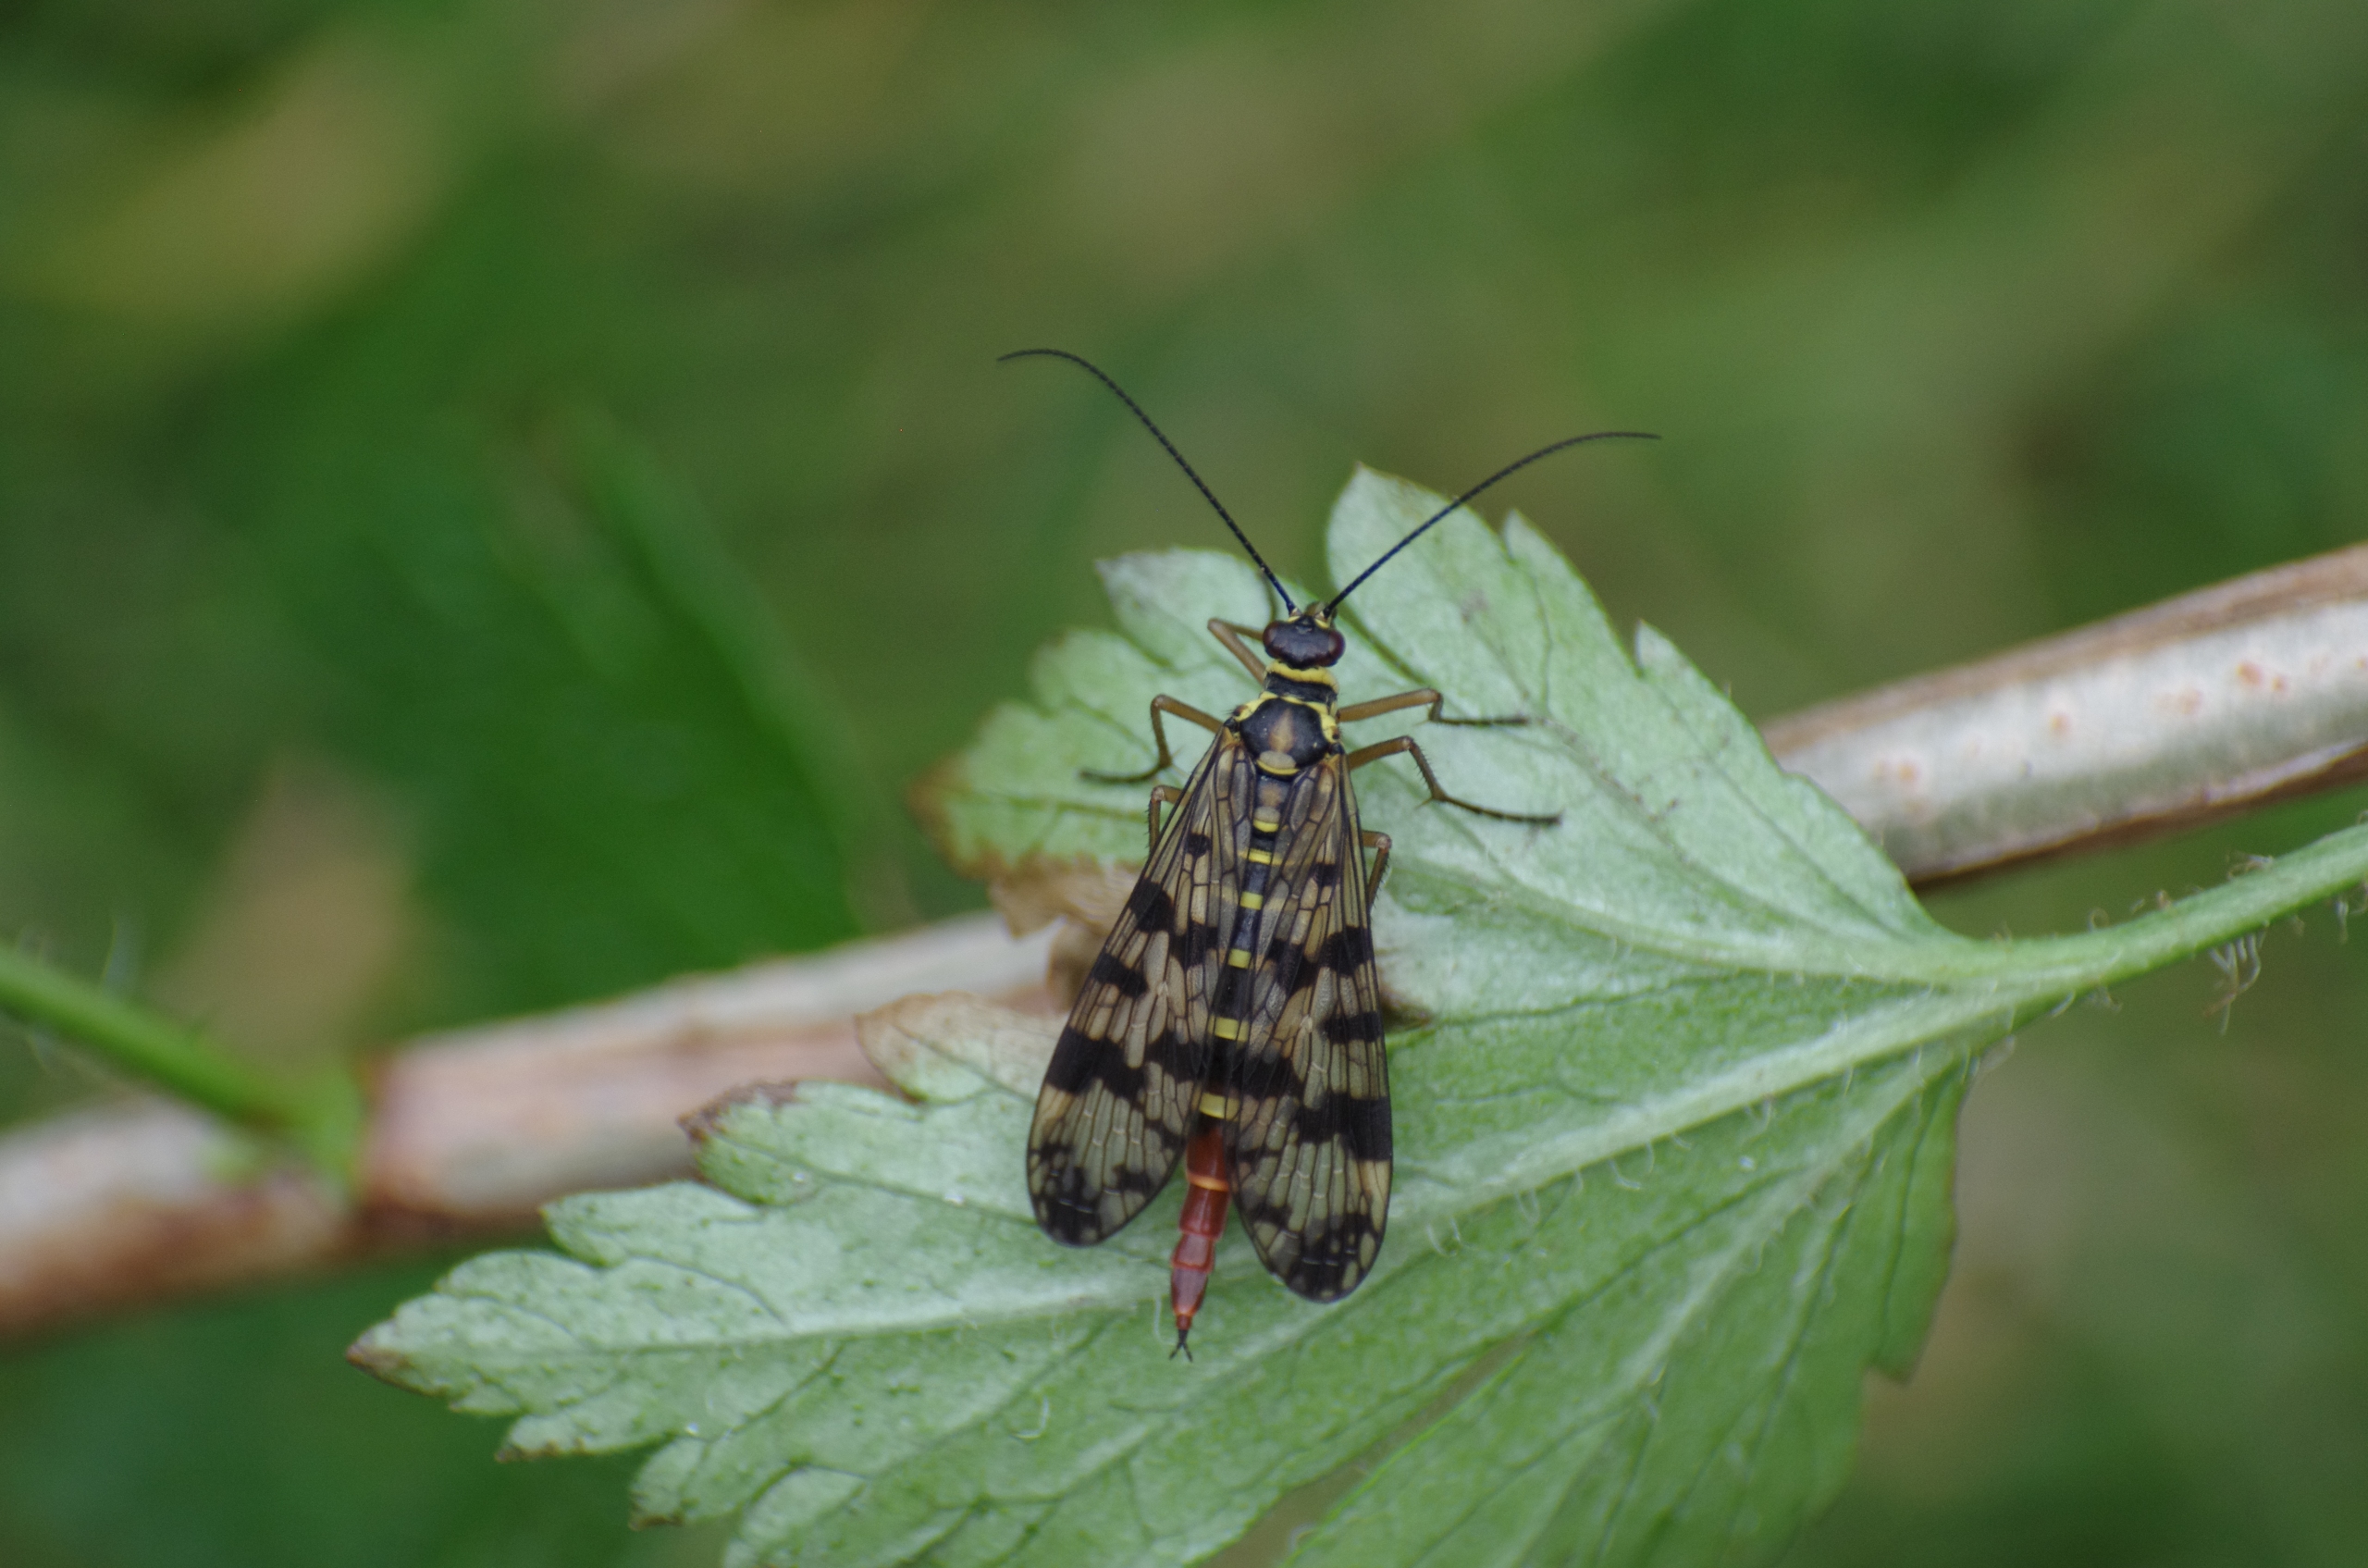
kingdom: Animalia
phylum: Arthropoda
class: Insecta
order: Mecoptera
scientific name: Mecoptera
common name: Skorpionsfluer
